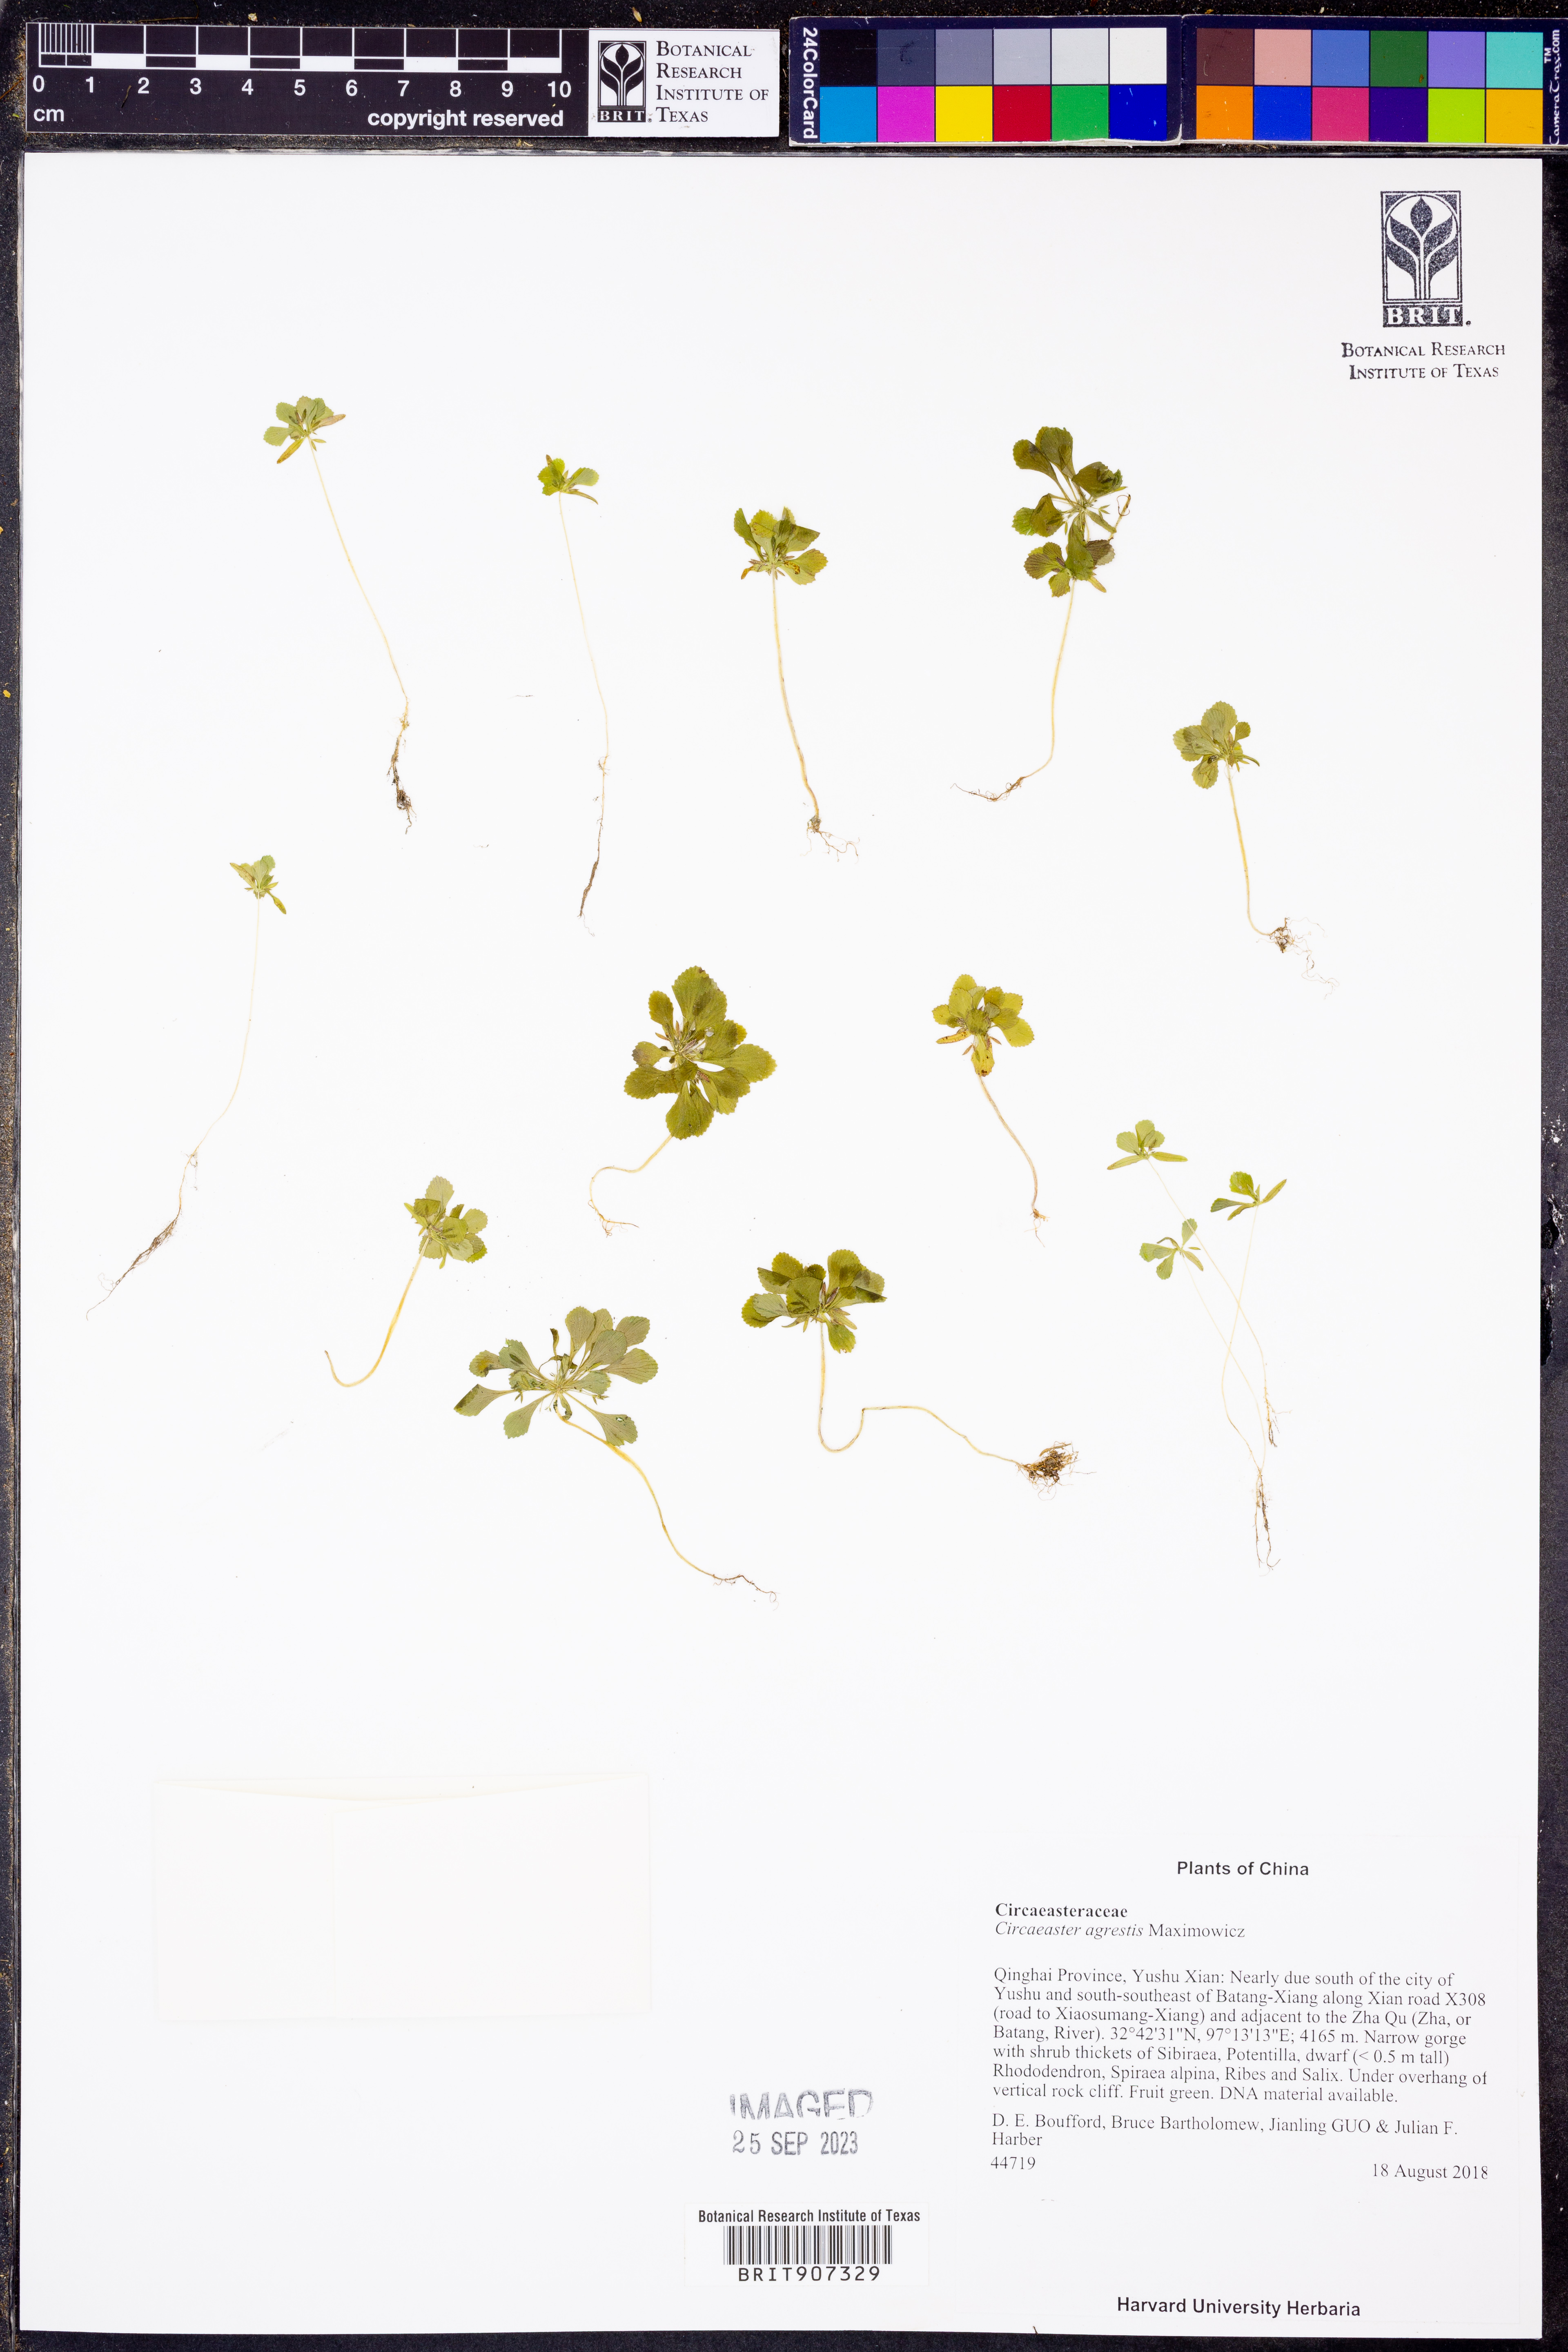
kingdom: Plantae
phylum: Tracheophyta
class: Magnoliopsida
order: Ranunculales
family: Circaeasteraceae
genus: Circaeaster
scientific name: Circaeaster agrestis
